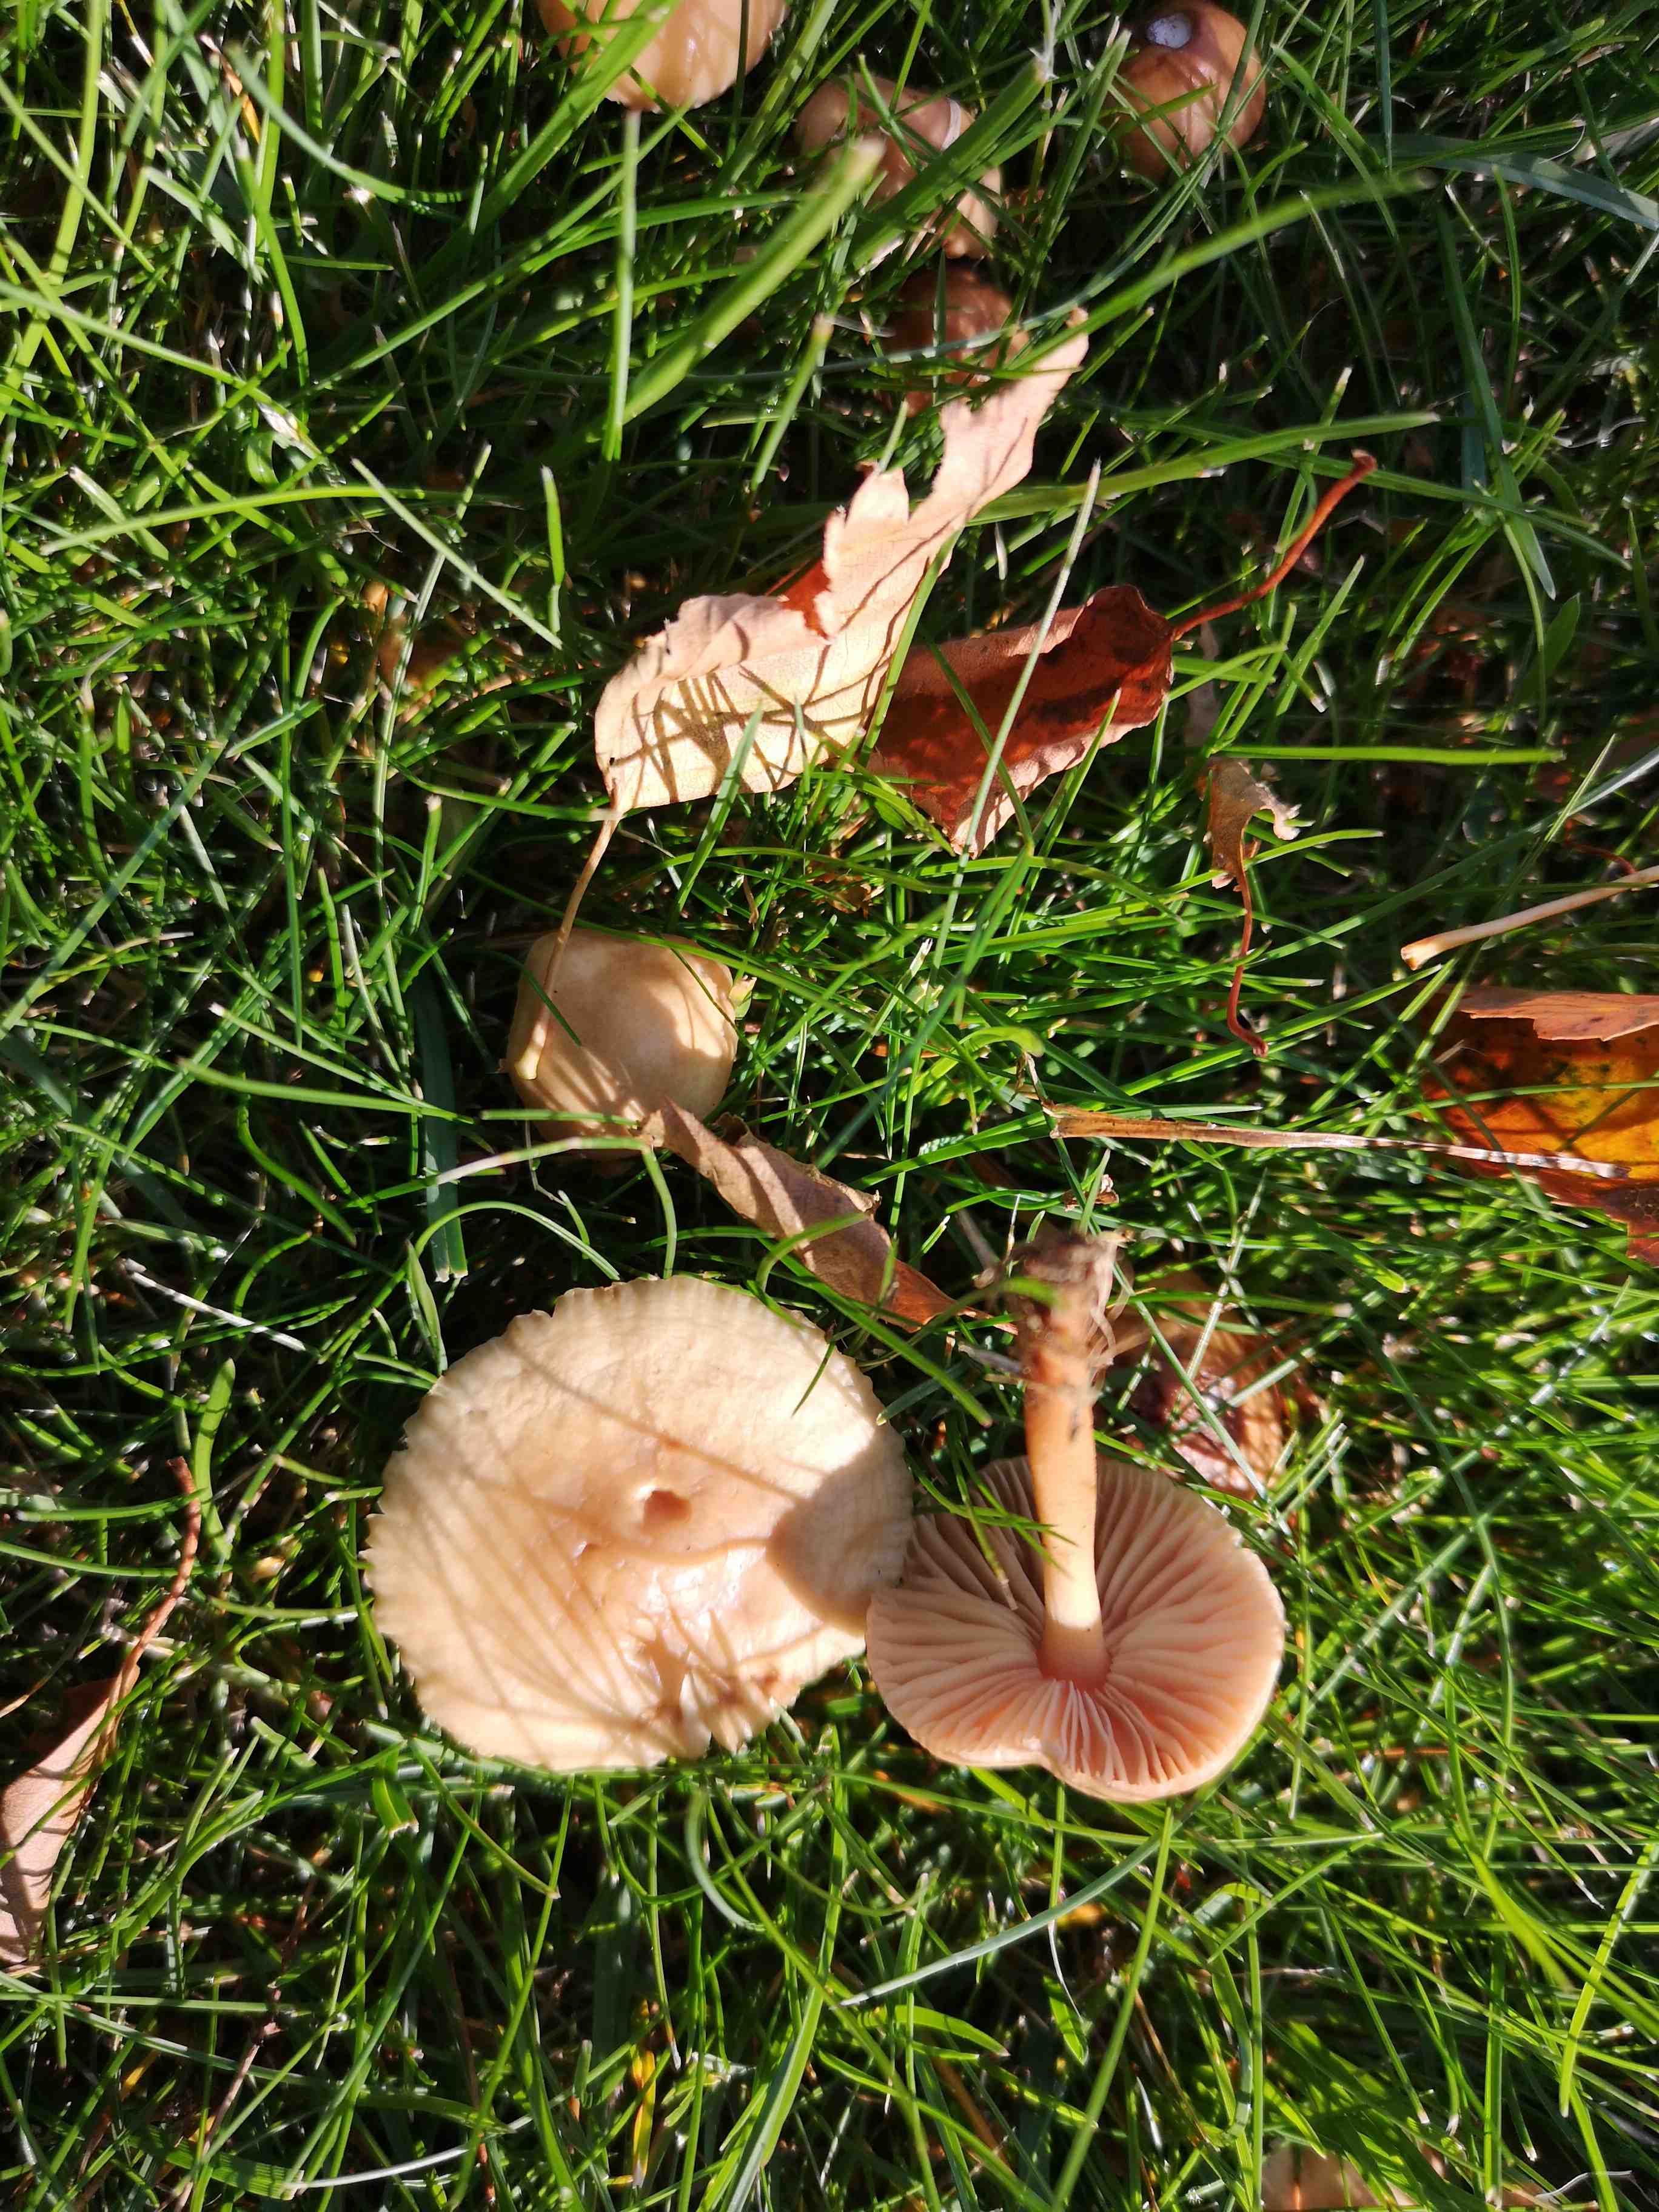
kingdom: Fungi
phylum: Basidiomycota
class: Agaricomycetes
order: Agaricales
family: Marasmiaceae
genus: Marasmius
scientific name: Marasmius oreades
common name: elledans-bruskhat
